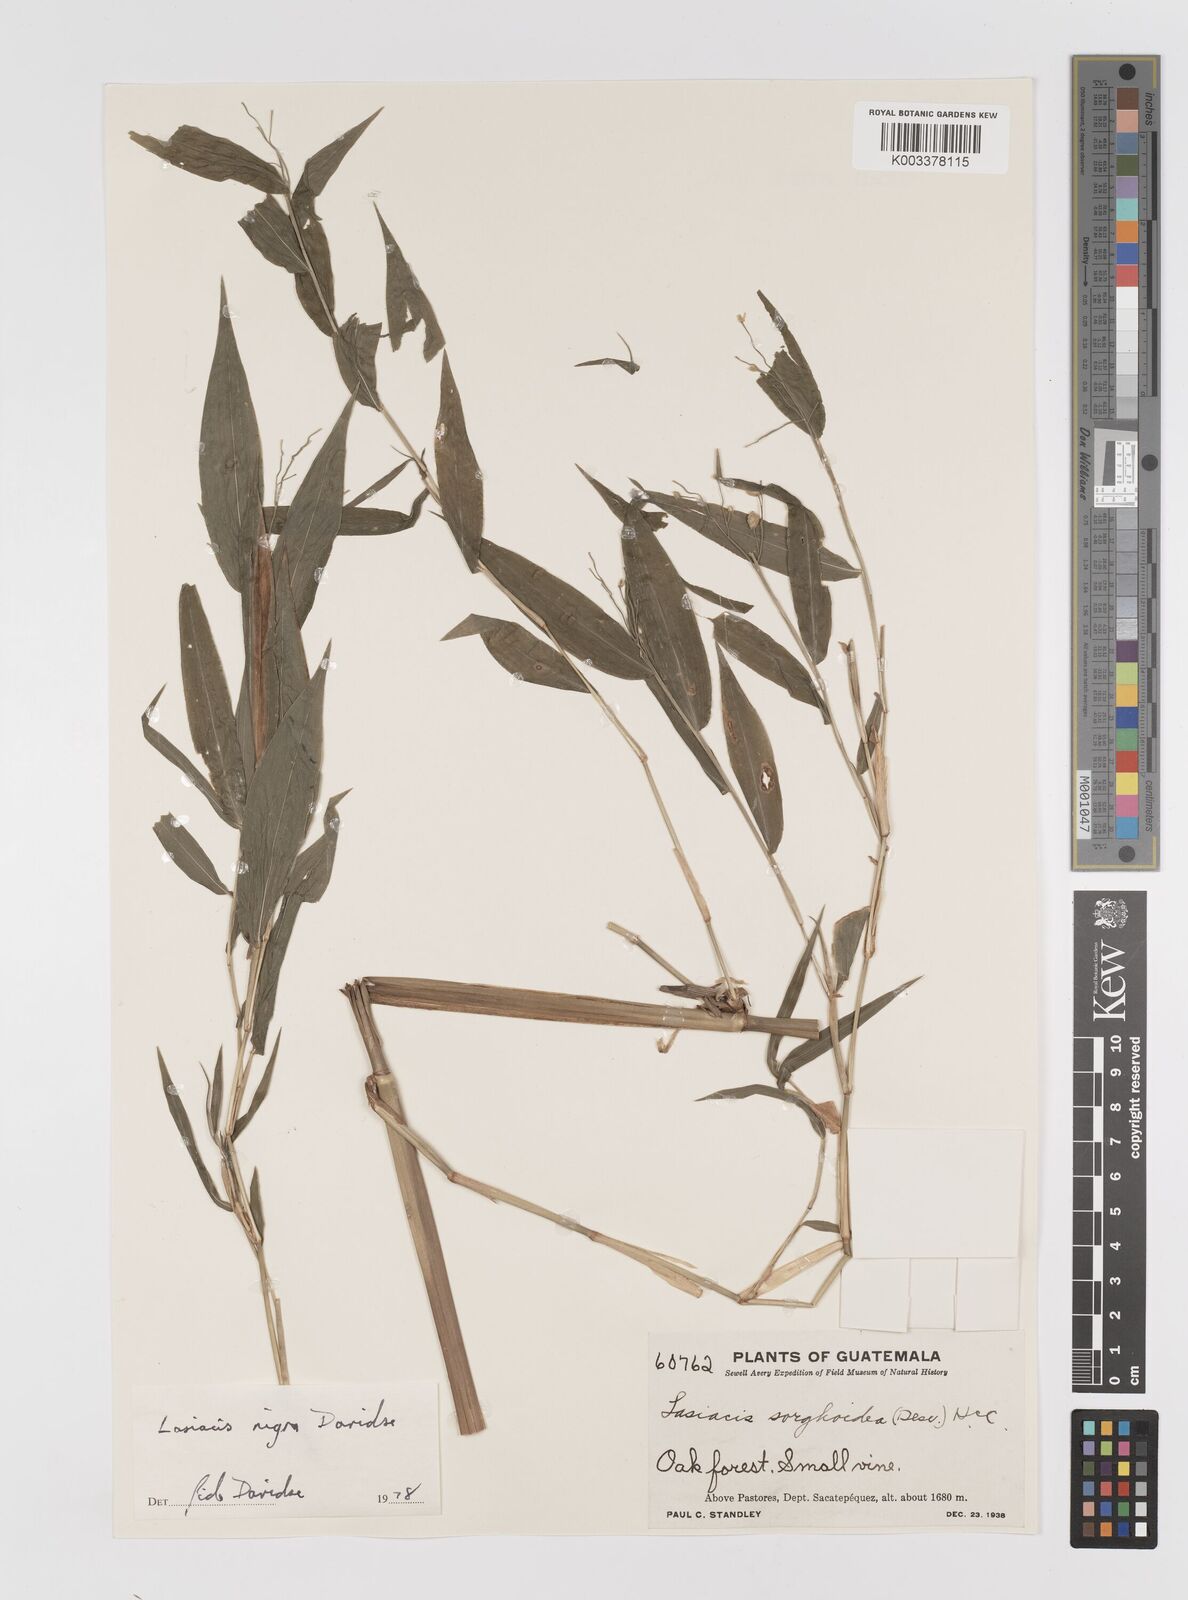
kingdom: Plantae
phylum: Tracheophyta
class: Liliopsida
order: Poales
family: Poaceae
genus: Lasiacis
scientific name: Lasiacis nigra
